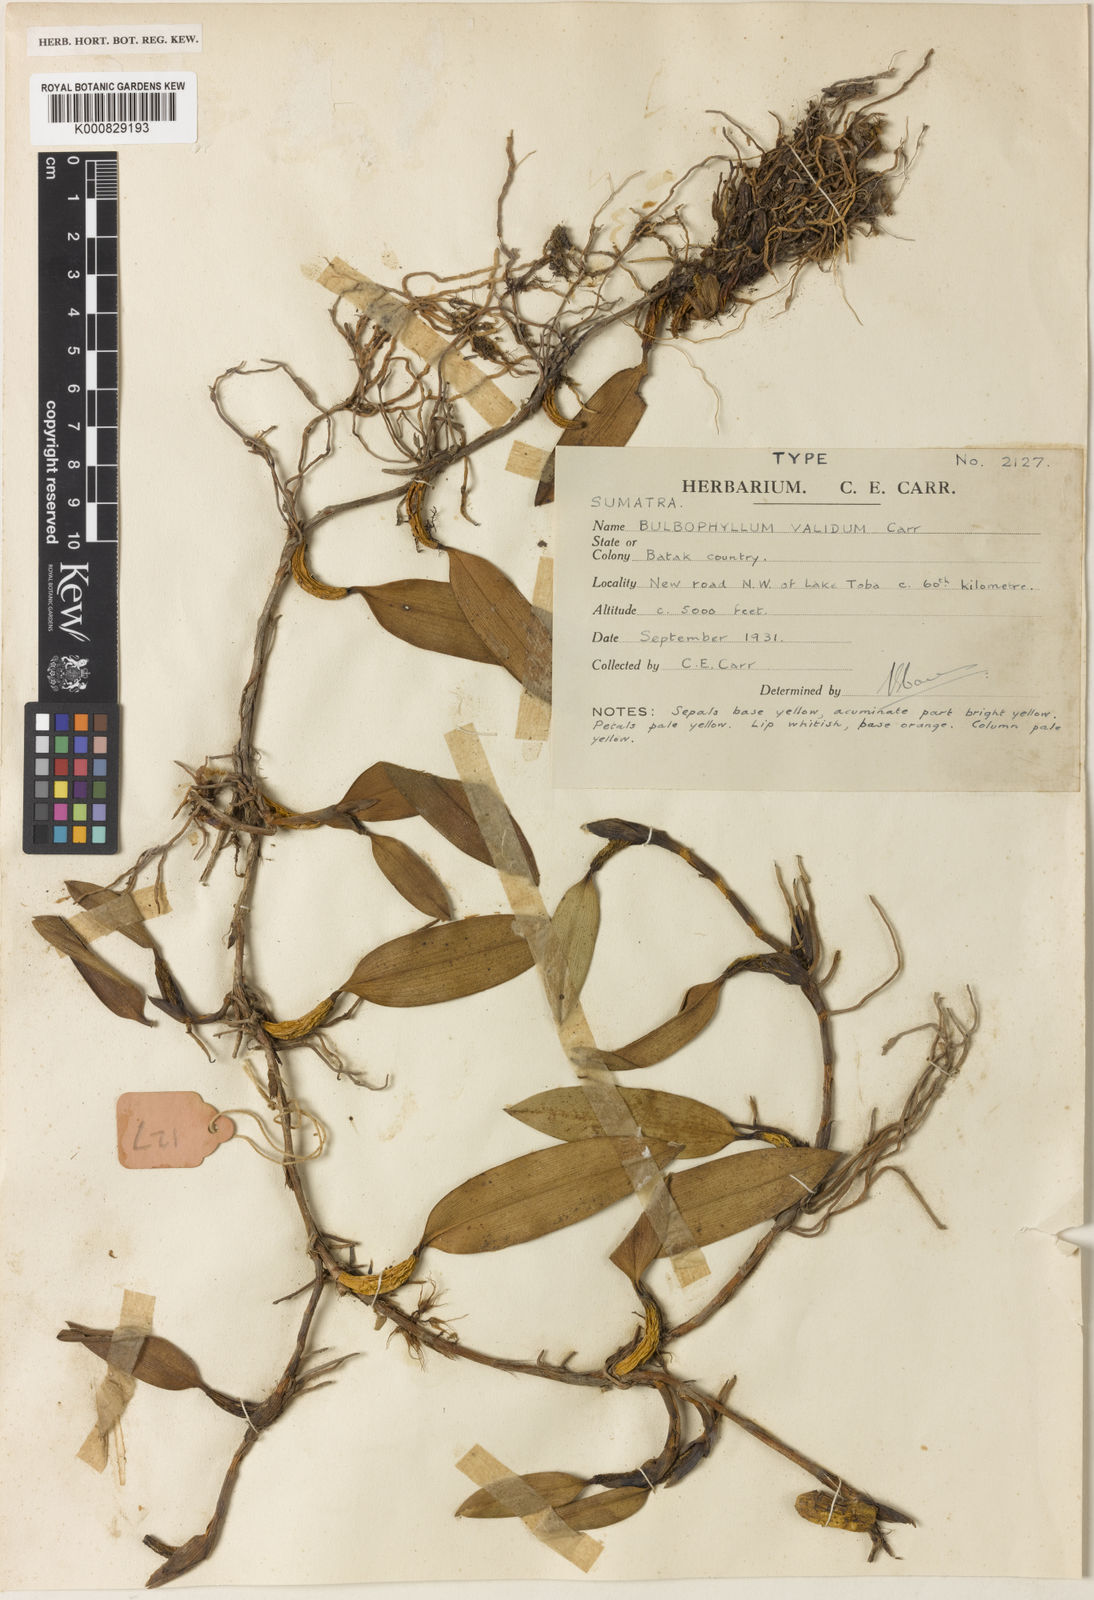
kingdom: Plantae
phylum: Tracheophyta
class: Liliopsida
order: Asparagales
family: Orchidaceae
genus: Bulbophyllum
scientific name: Bulbophyllum validum
